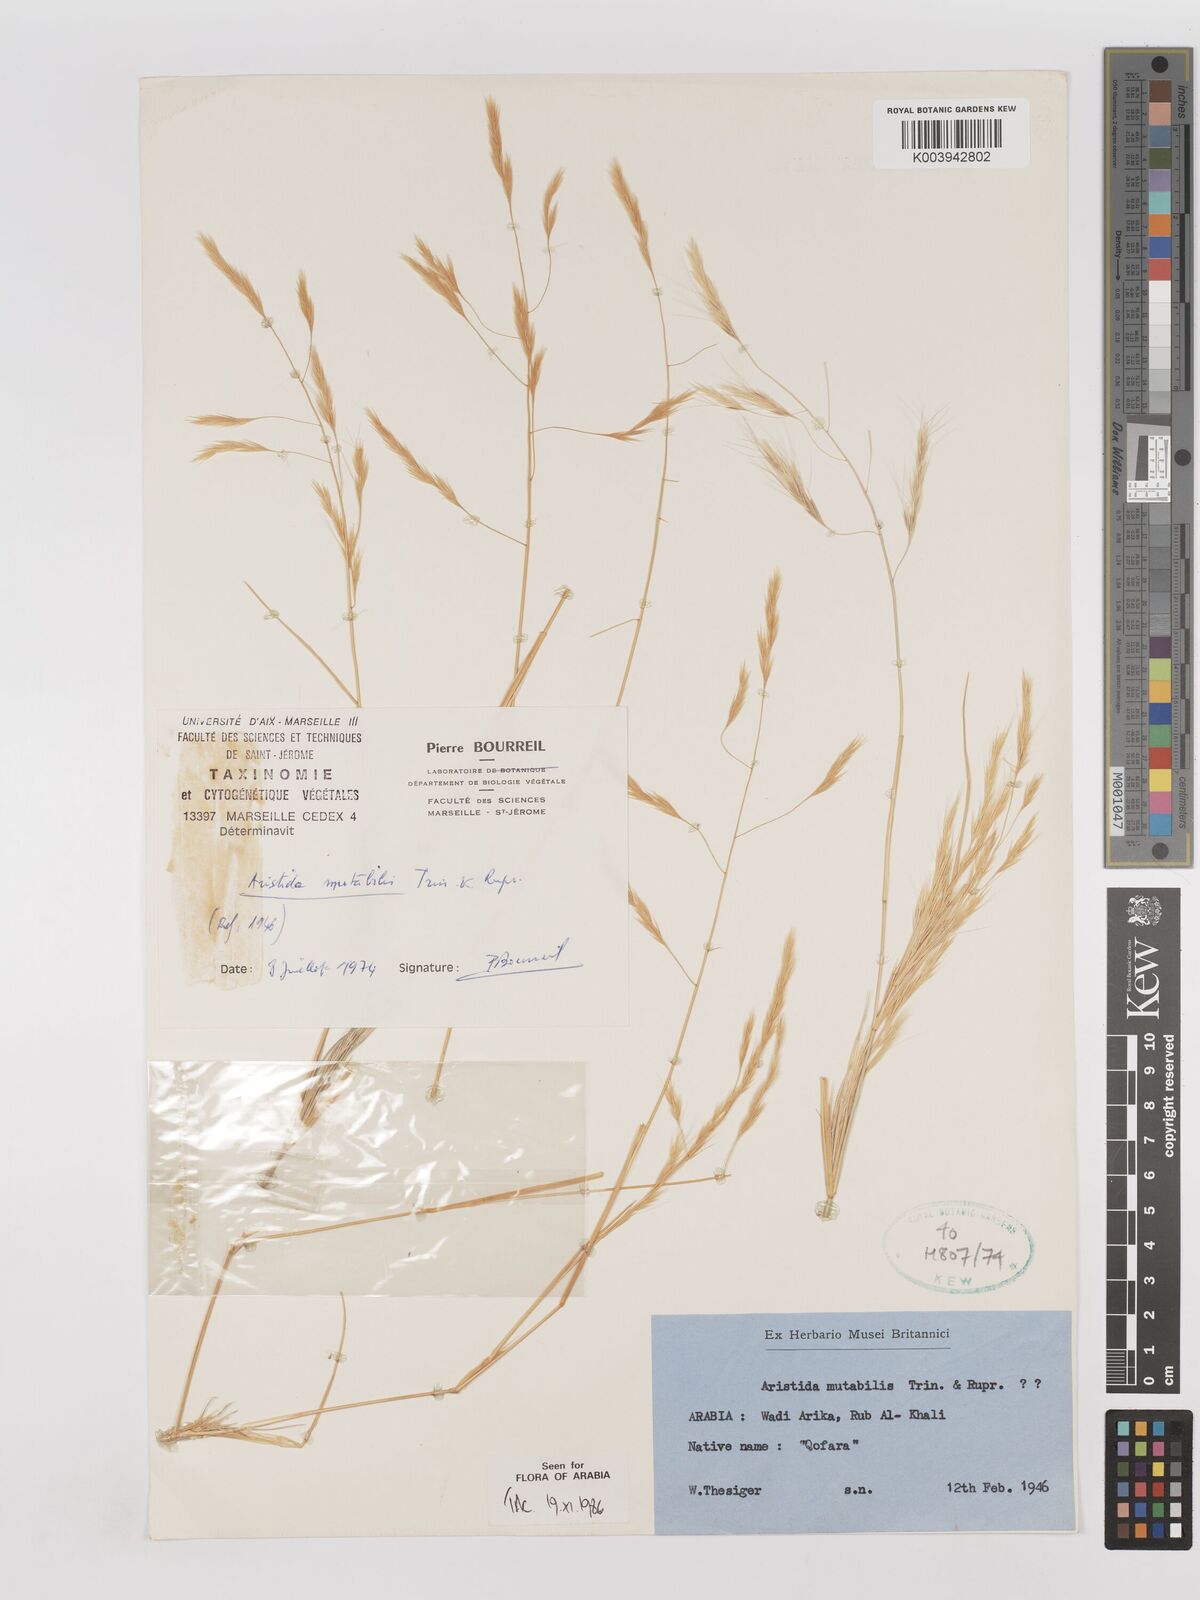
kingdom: Plantae
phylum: Tracheophyta
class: Liliopsida
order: Poales
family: Poaceae
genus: Aristida
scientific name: Aristida mutabilis
